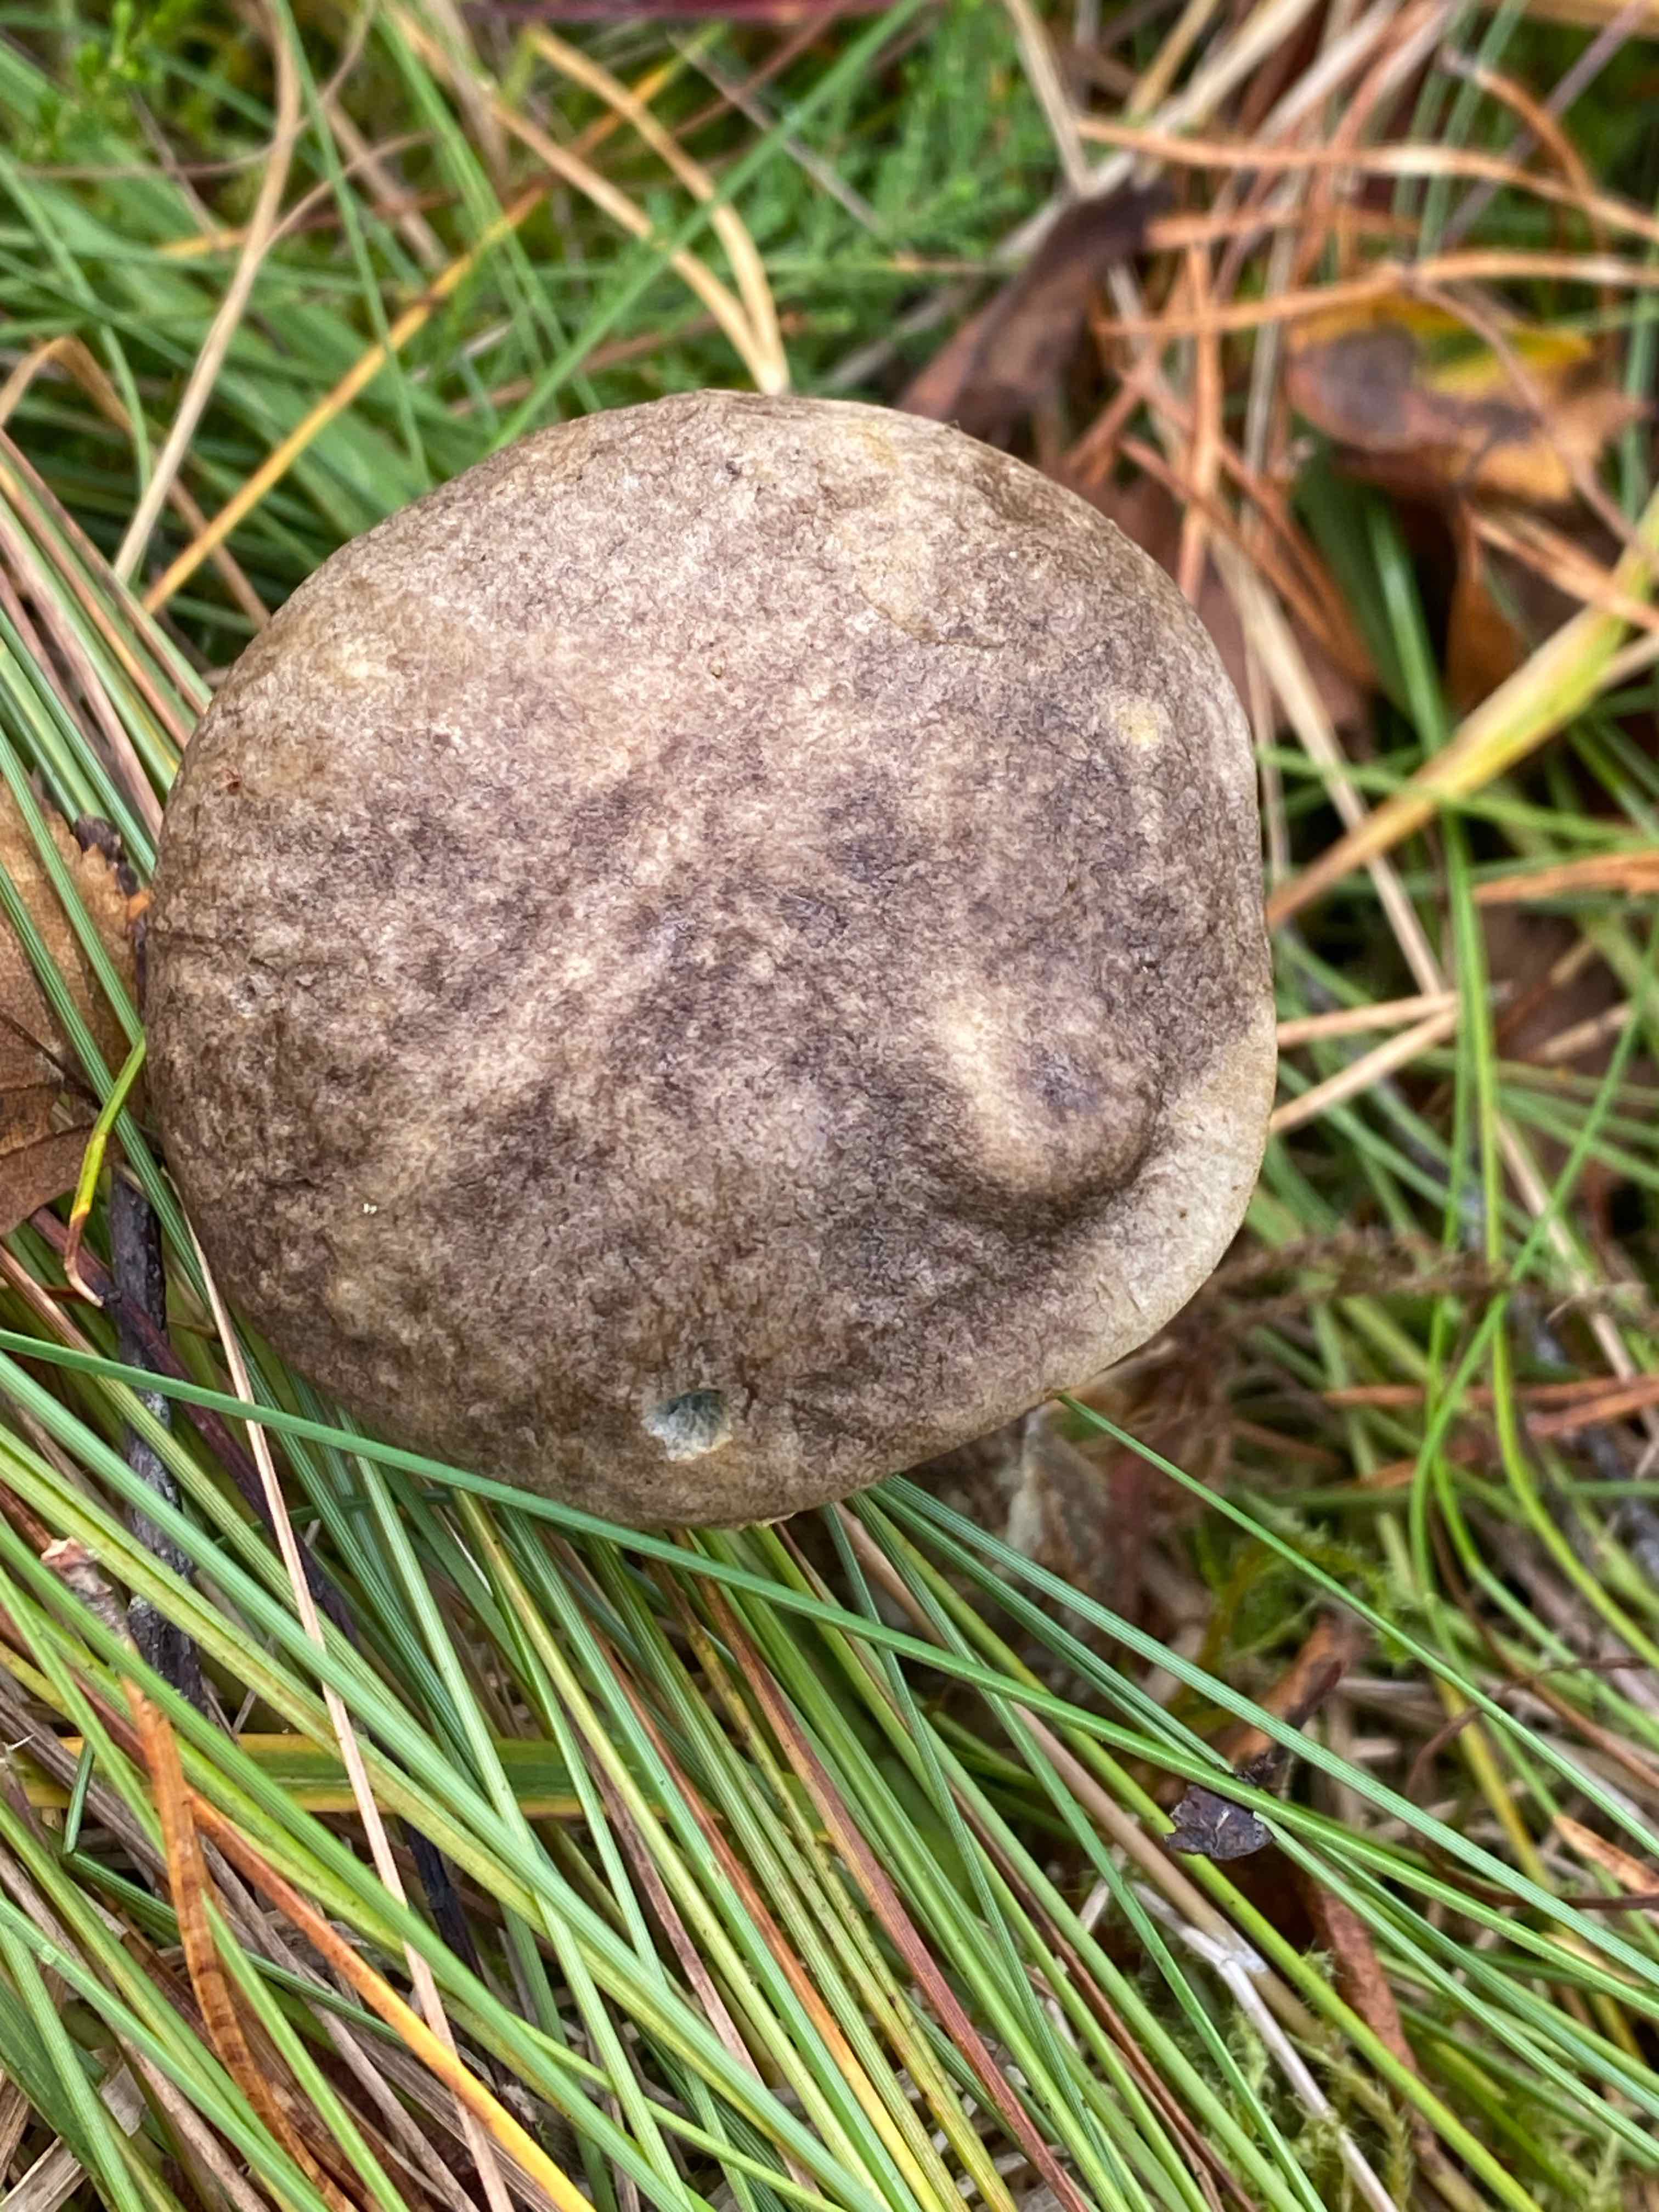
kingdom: Fungi
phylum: Basidiomycota
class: Agaricomycetes
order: Boletales
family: Boletaceae
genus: Leccinum
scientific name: Leccinum variicolor
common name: flammet skælrørhat
